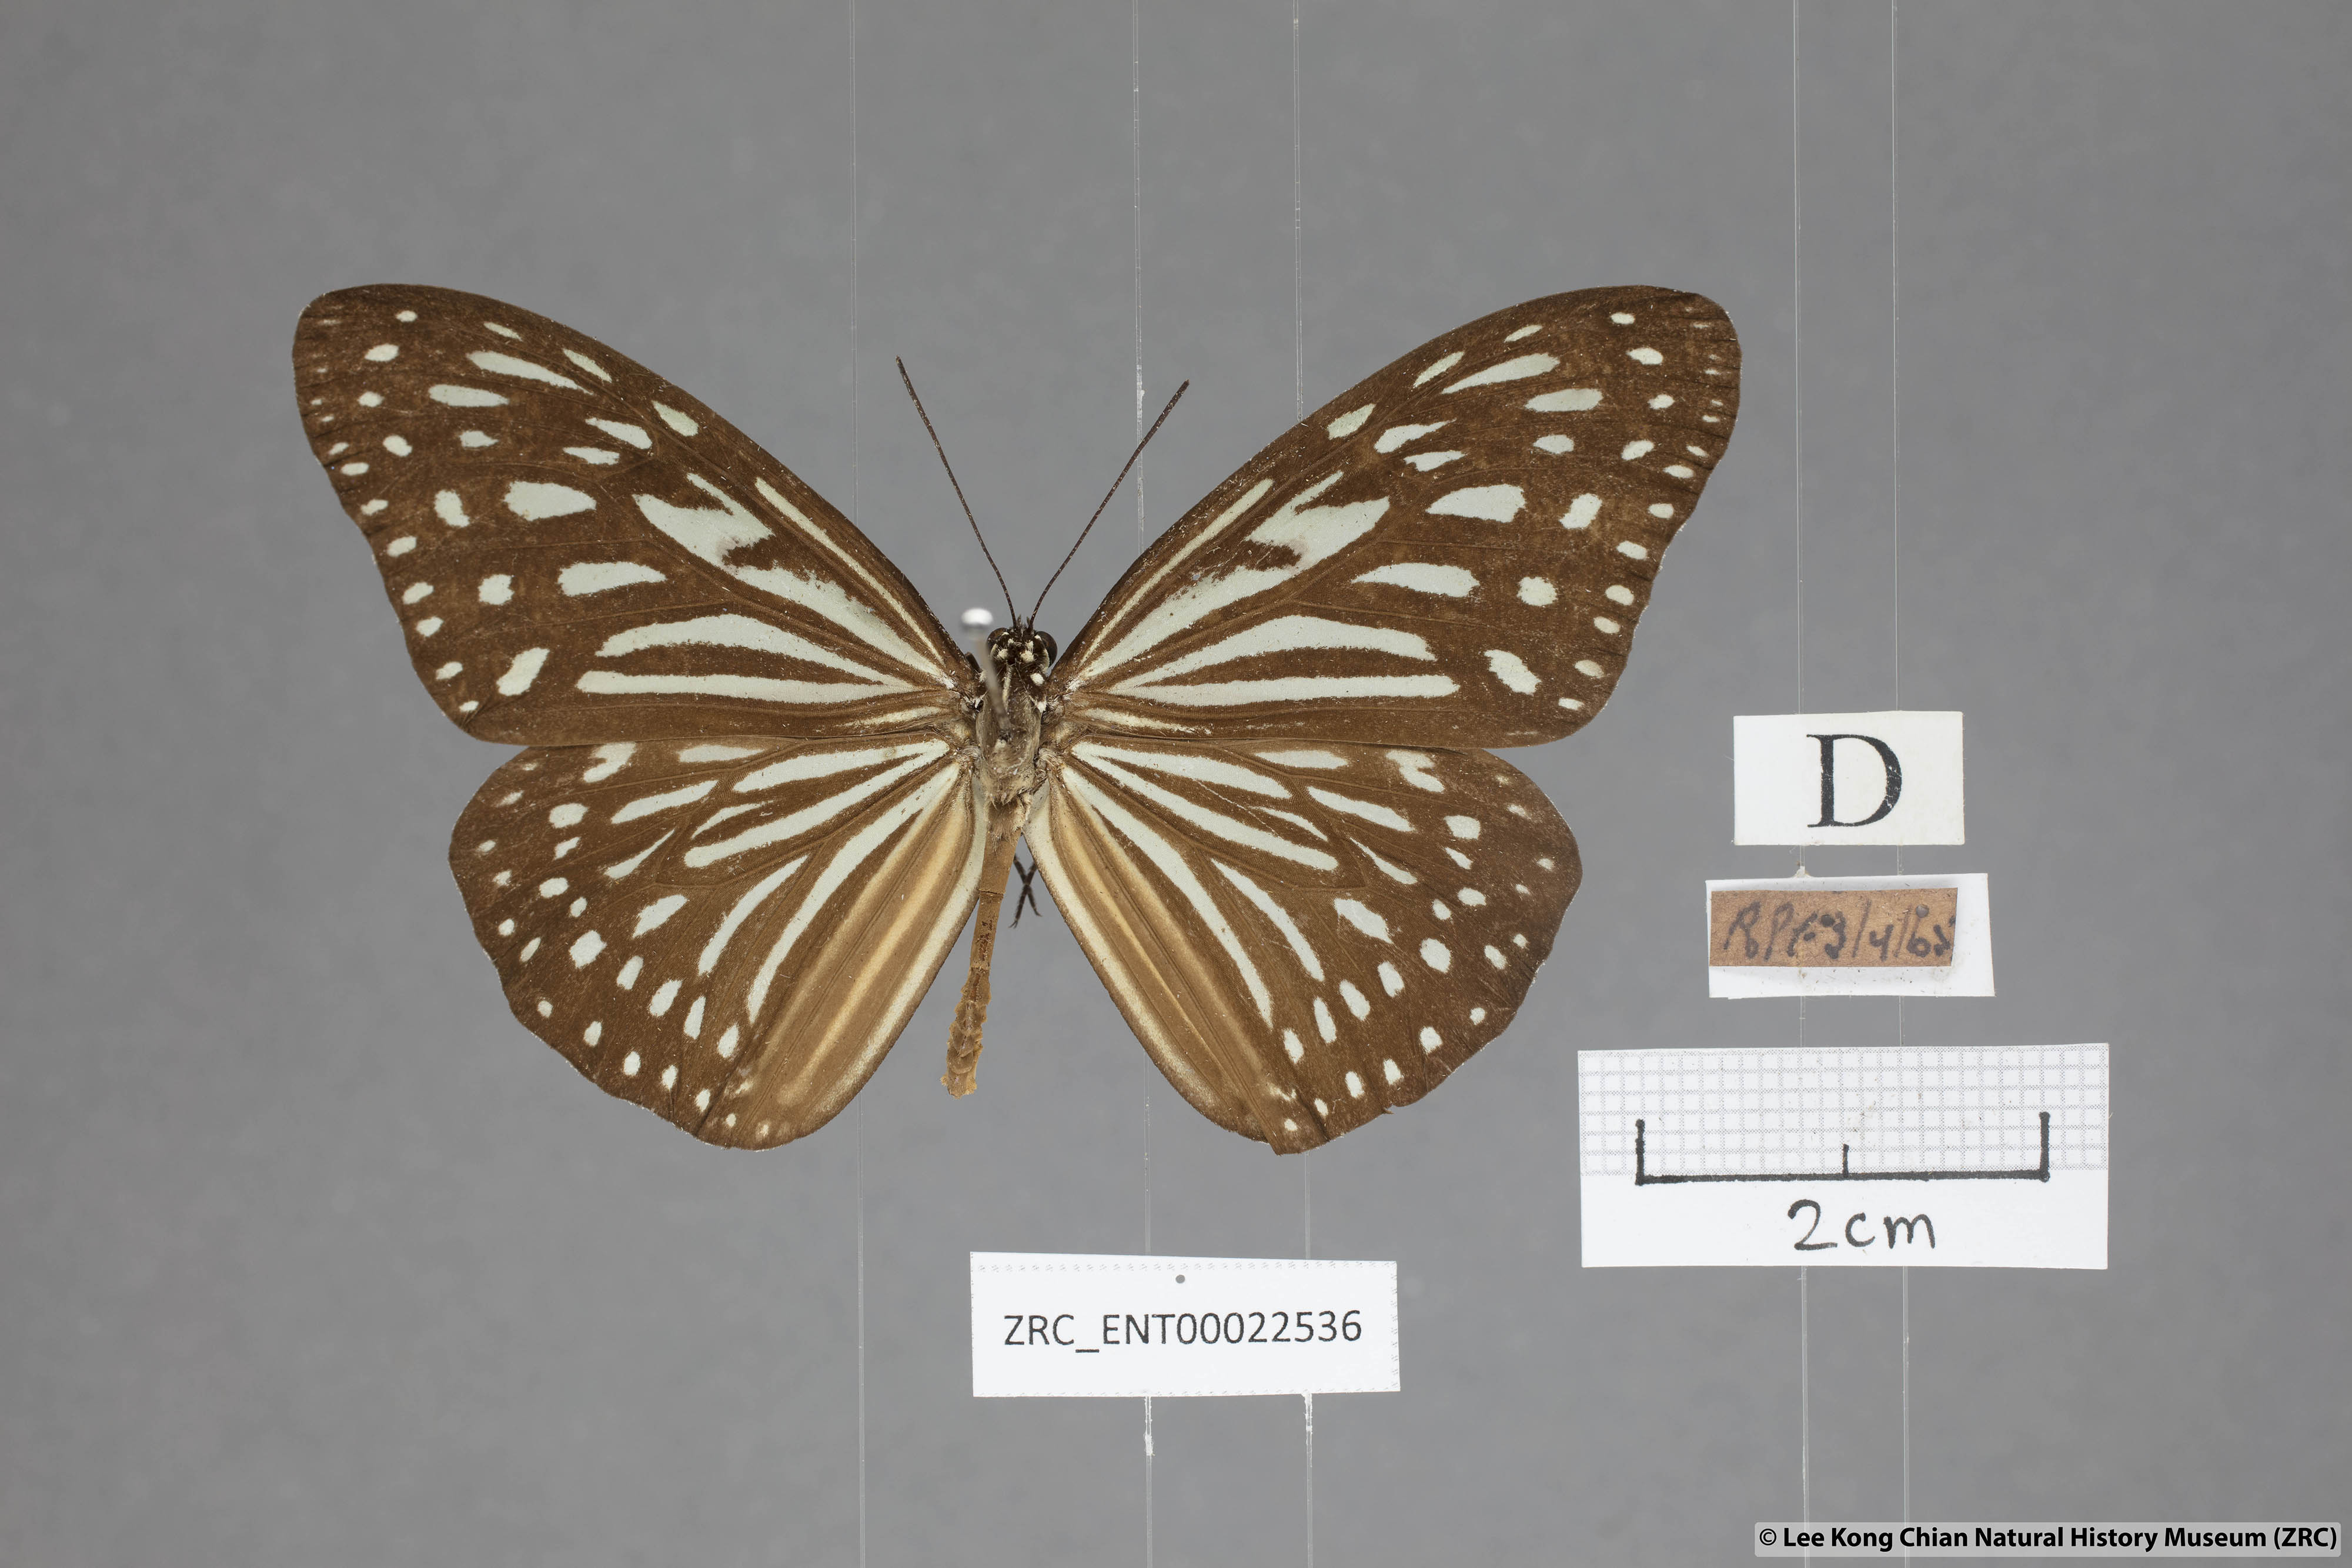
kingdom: Animalia
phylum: Arthropoda
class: Insecta
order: Lepidoptera
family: Nymphalidae
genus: Ideopsis
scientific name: Ideopsis vulgaris
